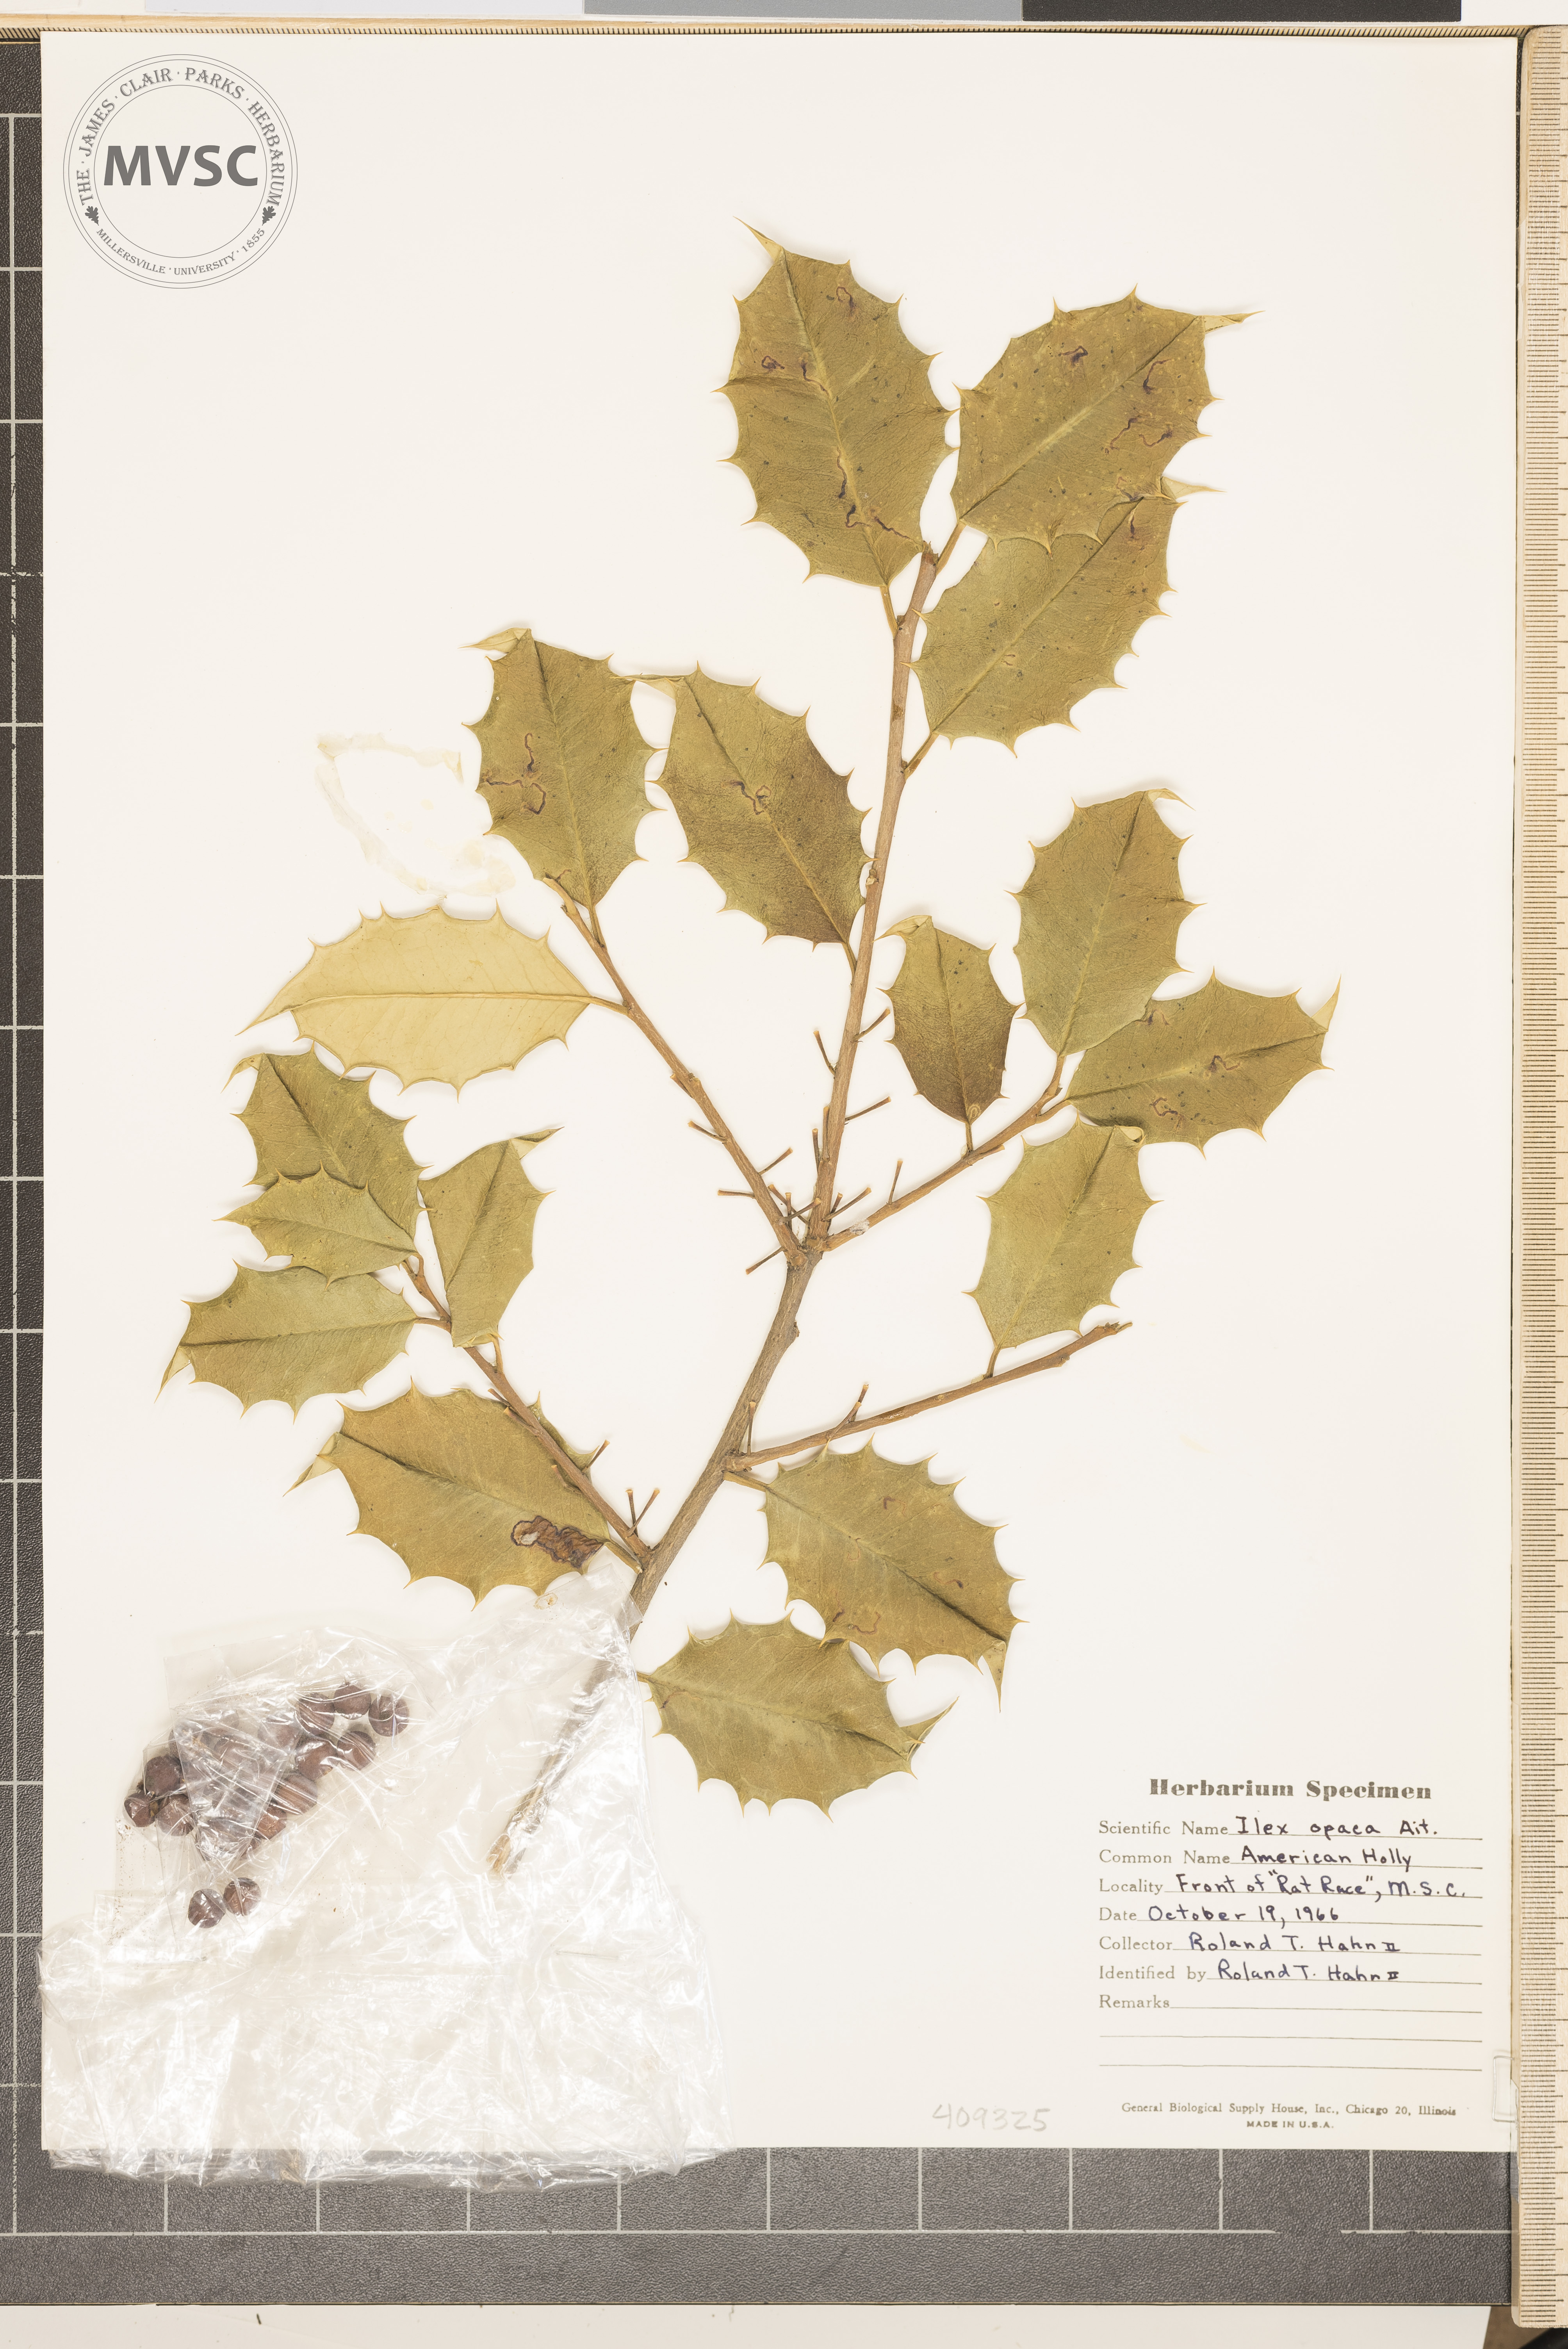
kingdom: Plantae
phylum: Tracheophyta
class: Magnoliopsida
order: Aquifoliales
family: Aquifoliaceae
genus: Ilex
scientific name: Ilex opaca
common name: American holly
